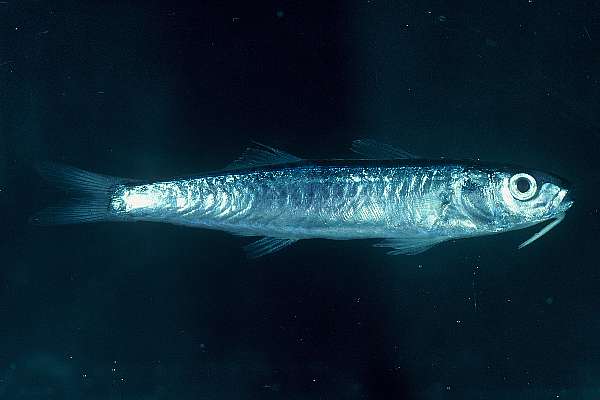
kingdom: Animalia
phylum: Chordata
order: Perciformes
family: Mullidae
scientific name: Mullidae
